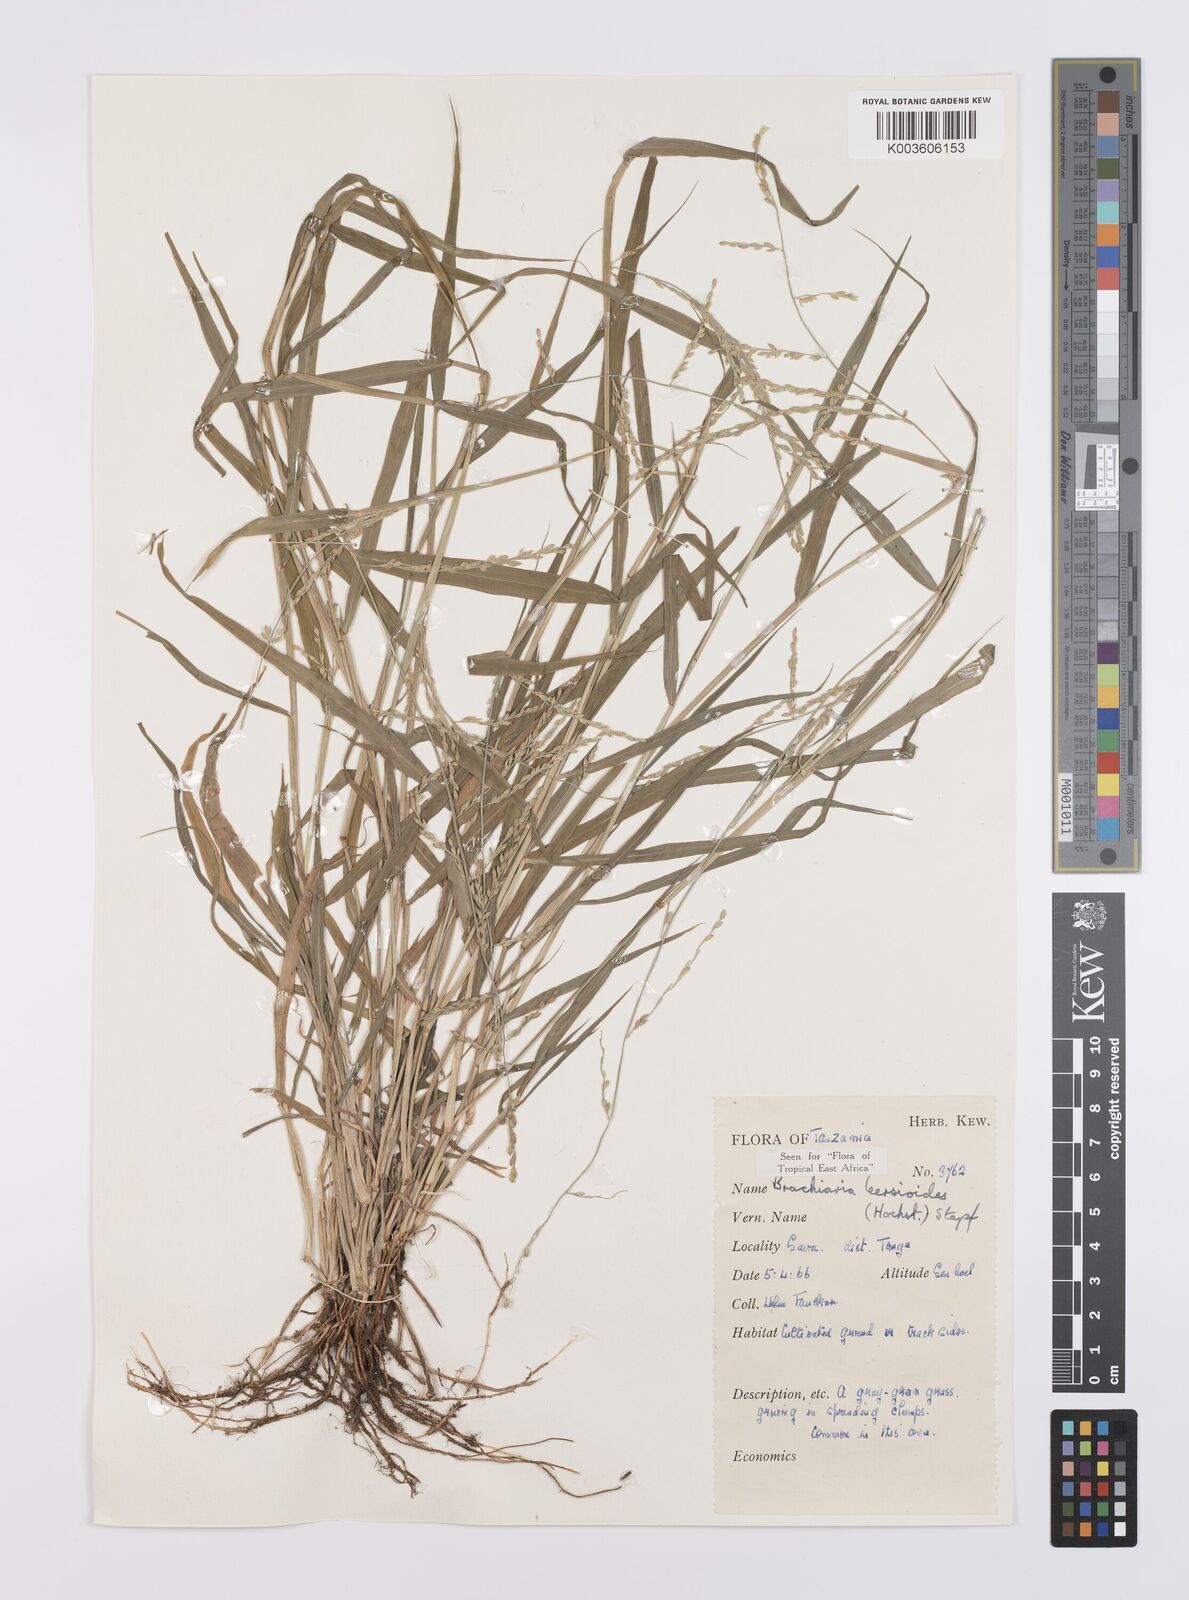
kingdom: Plantae
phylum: Tracheophyta
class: Liliopsida
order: Poales
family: Poaceae
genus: Urochloa
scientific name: Urochloa leersioides
